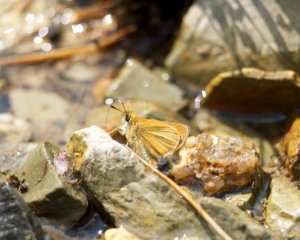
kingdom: Animalia
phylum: Arthropoda
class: Insecta
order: Lepidoptera
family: Hesperiidae
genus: Thymelicus
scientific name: Thymelicus lineola
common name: European Skipper
